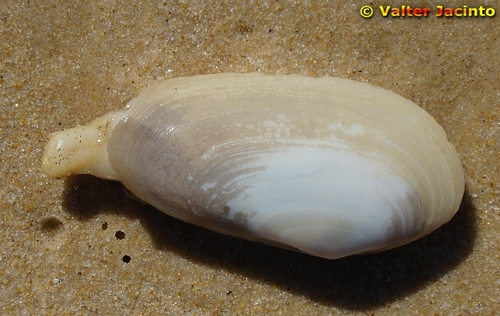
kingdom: Animalia
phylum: Mollusca
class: Bivalvia
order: Venerida
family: Mactridae
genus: Lutraria
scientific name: Lutraria lutraria
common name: Common otter shell
